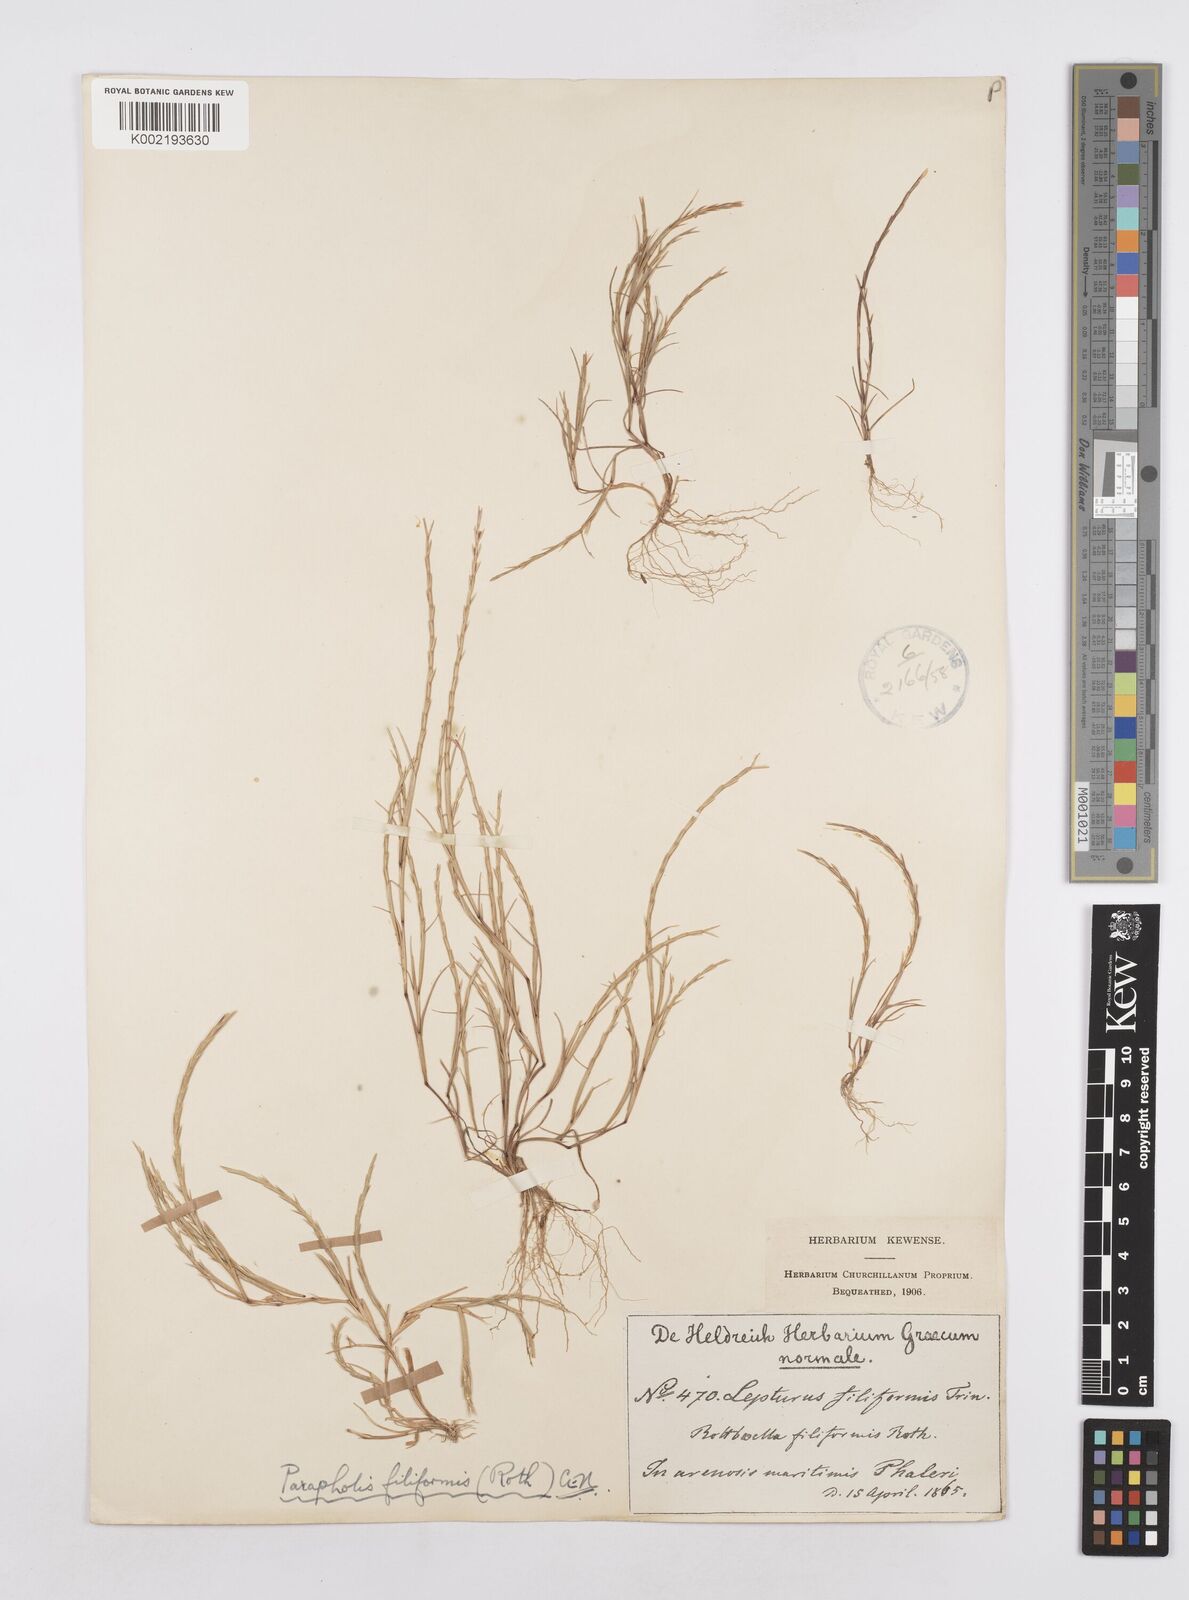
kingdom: Plantae
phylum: Tracheophyta
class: Liliopsida
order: Poales
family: Poaceae
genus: Parapholis
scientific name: Parapholis filiformis
